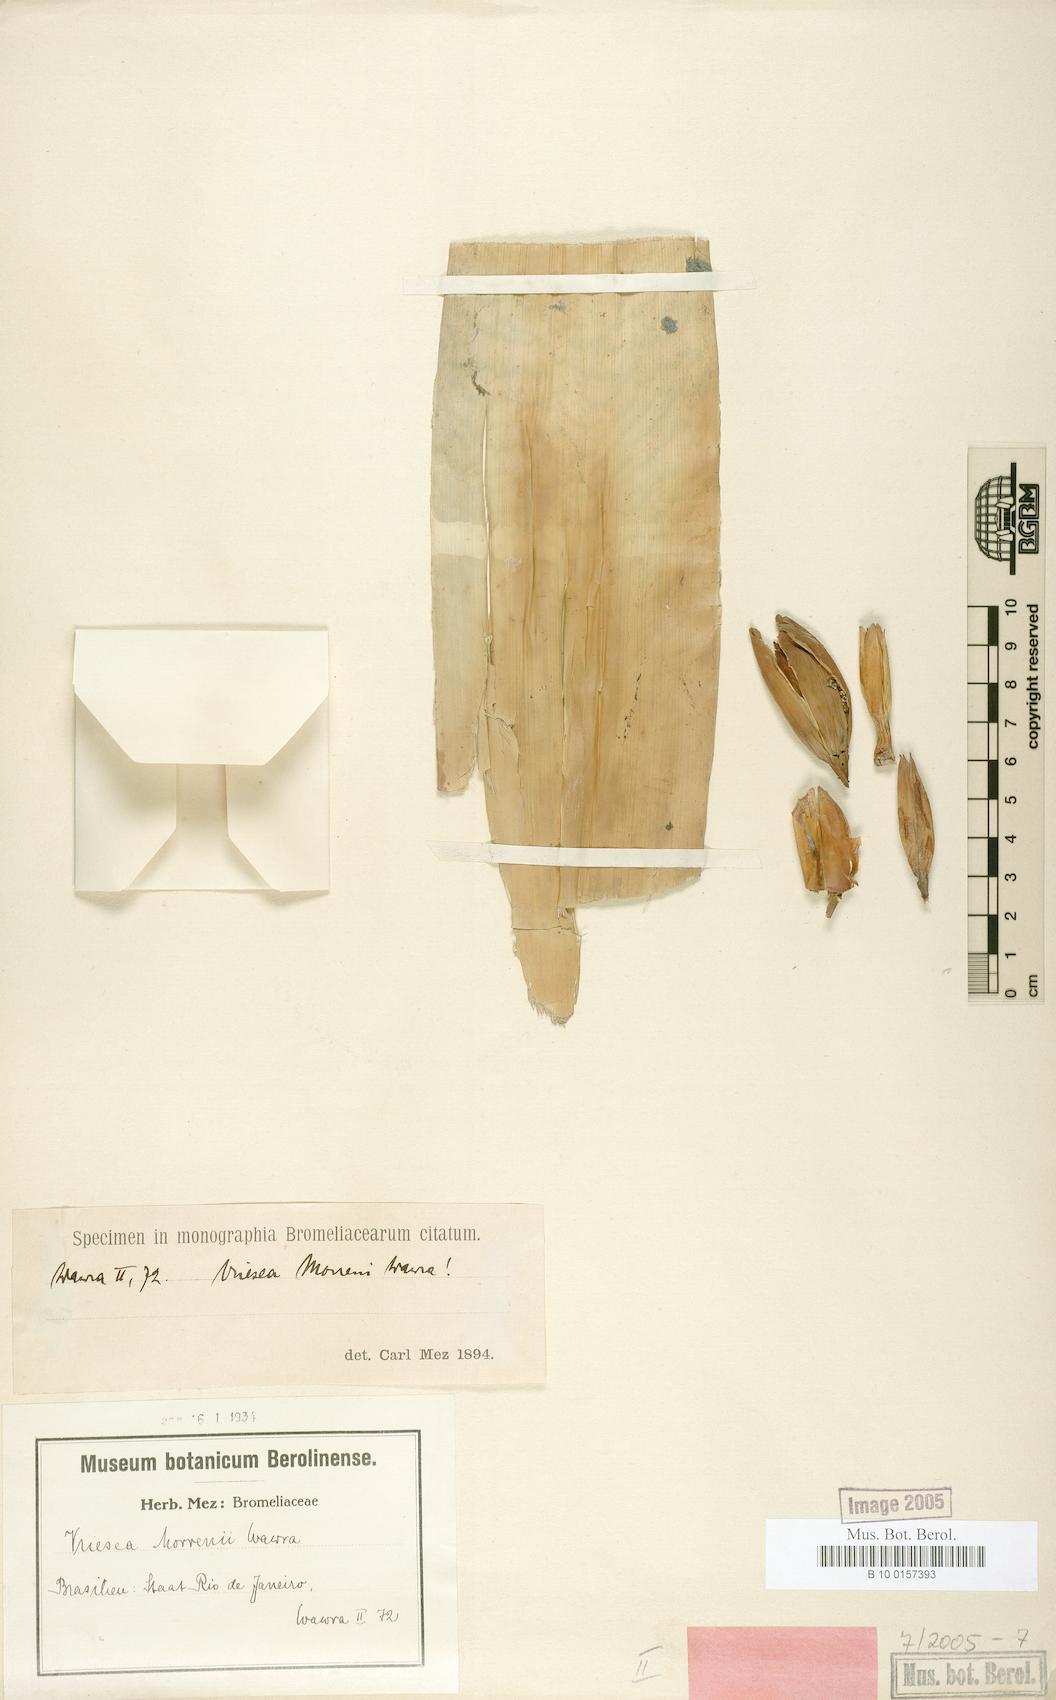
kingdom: Plantae
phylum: Tracheophyta
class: Liliopsida
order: Poales
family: Bromeliaceae
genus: Vriesea
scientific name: Vriesea morreni
